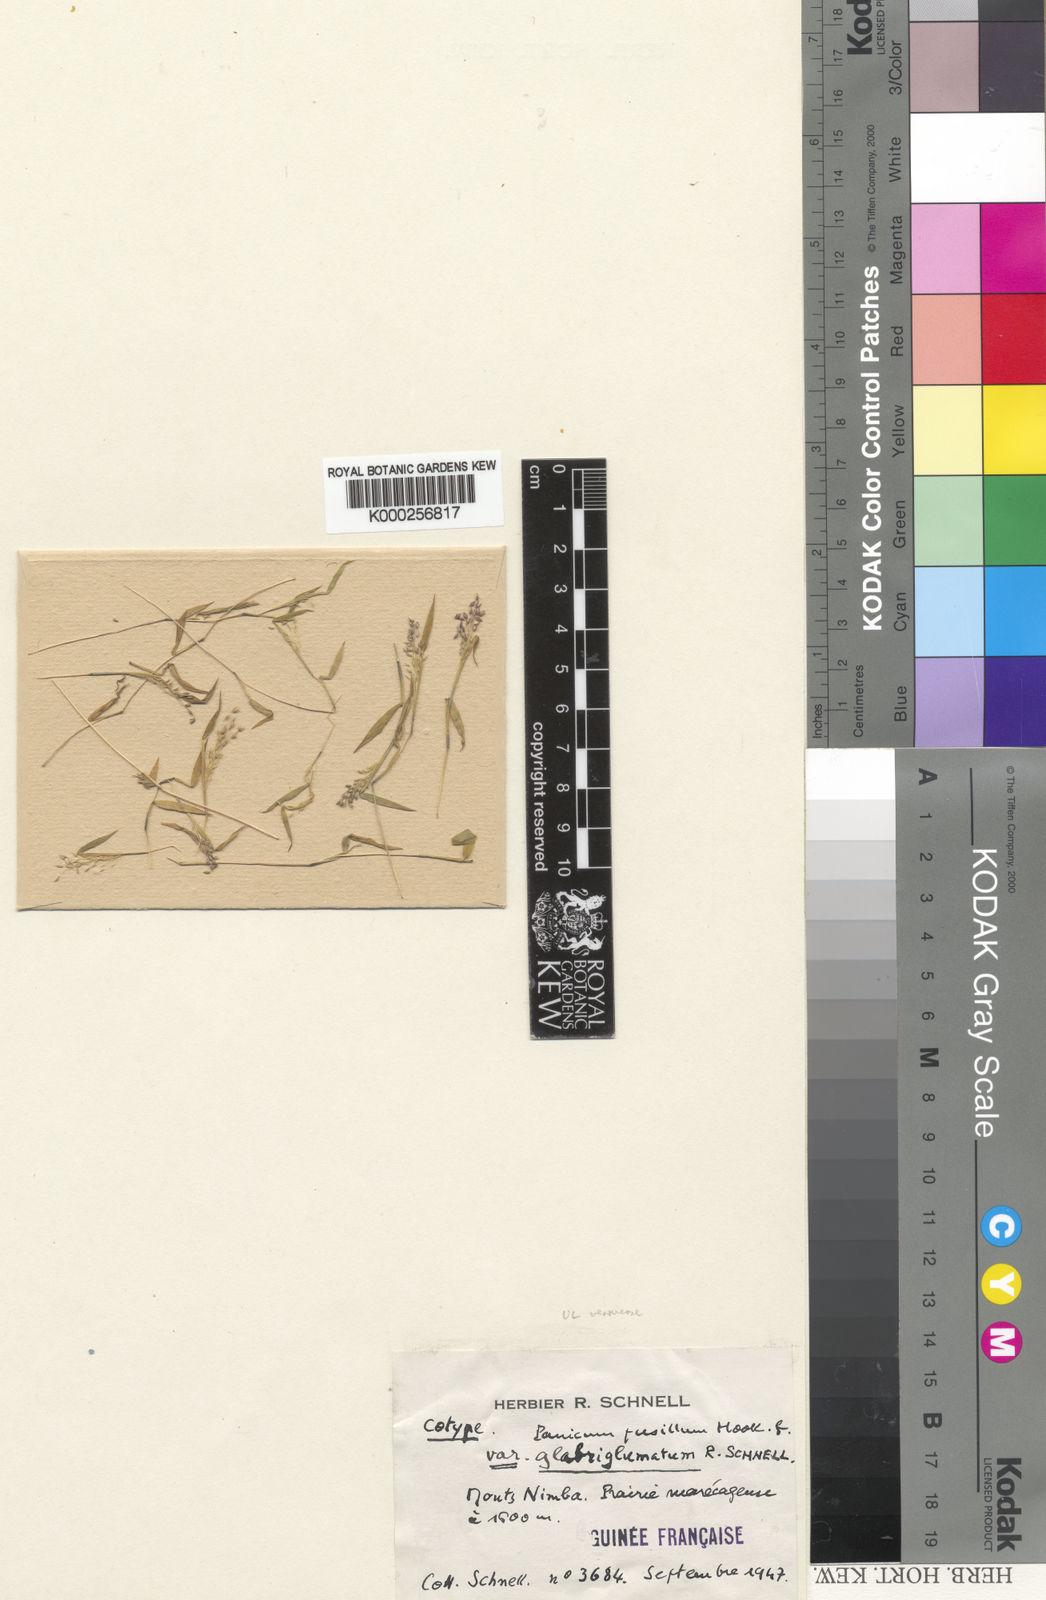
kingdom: Plantae
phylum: Tracheophyta
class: Liliopsida
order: Poales
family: Poaceae
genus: Trichanthecium
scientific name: Trichanthecium glaucocladum
